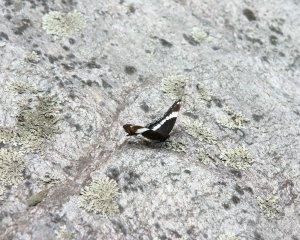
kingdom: Animalia
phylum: Arthropoda
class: Insecta
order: Lepidoptera
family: Nymphalidae
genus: Limenitis
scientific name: Limenitis arthemis
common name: Red-spotted Admiral
